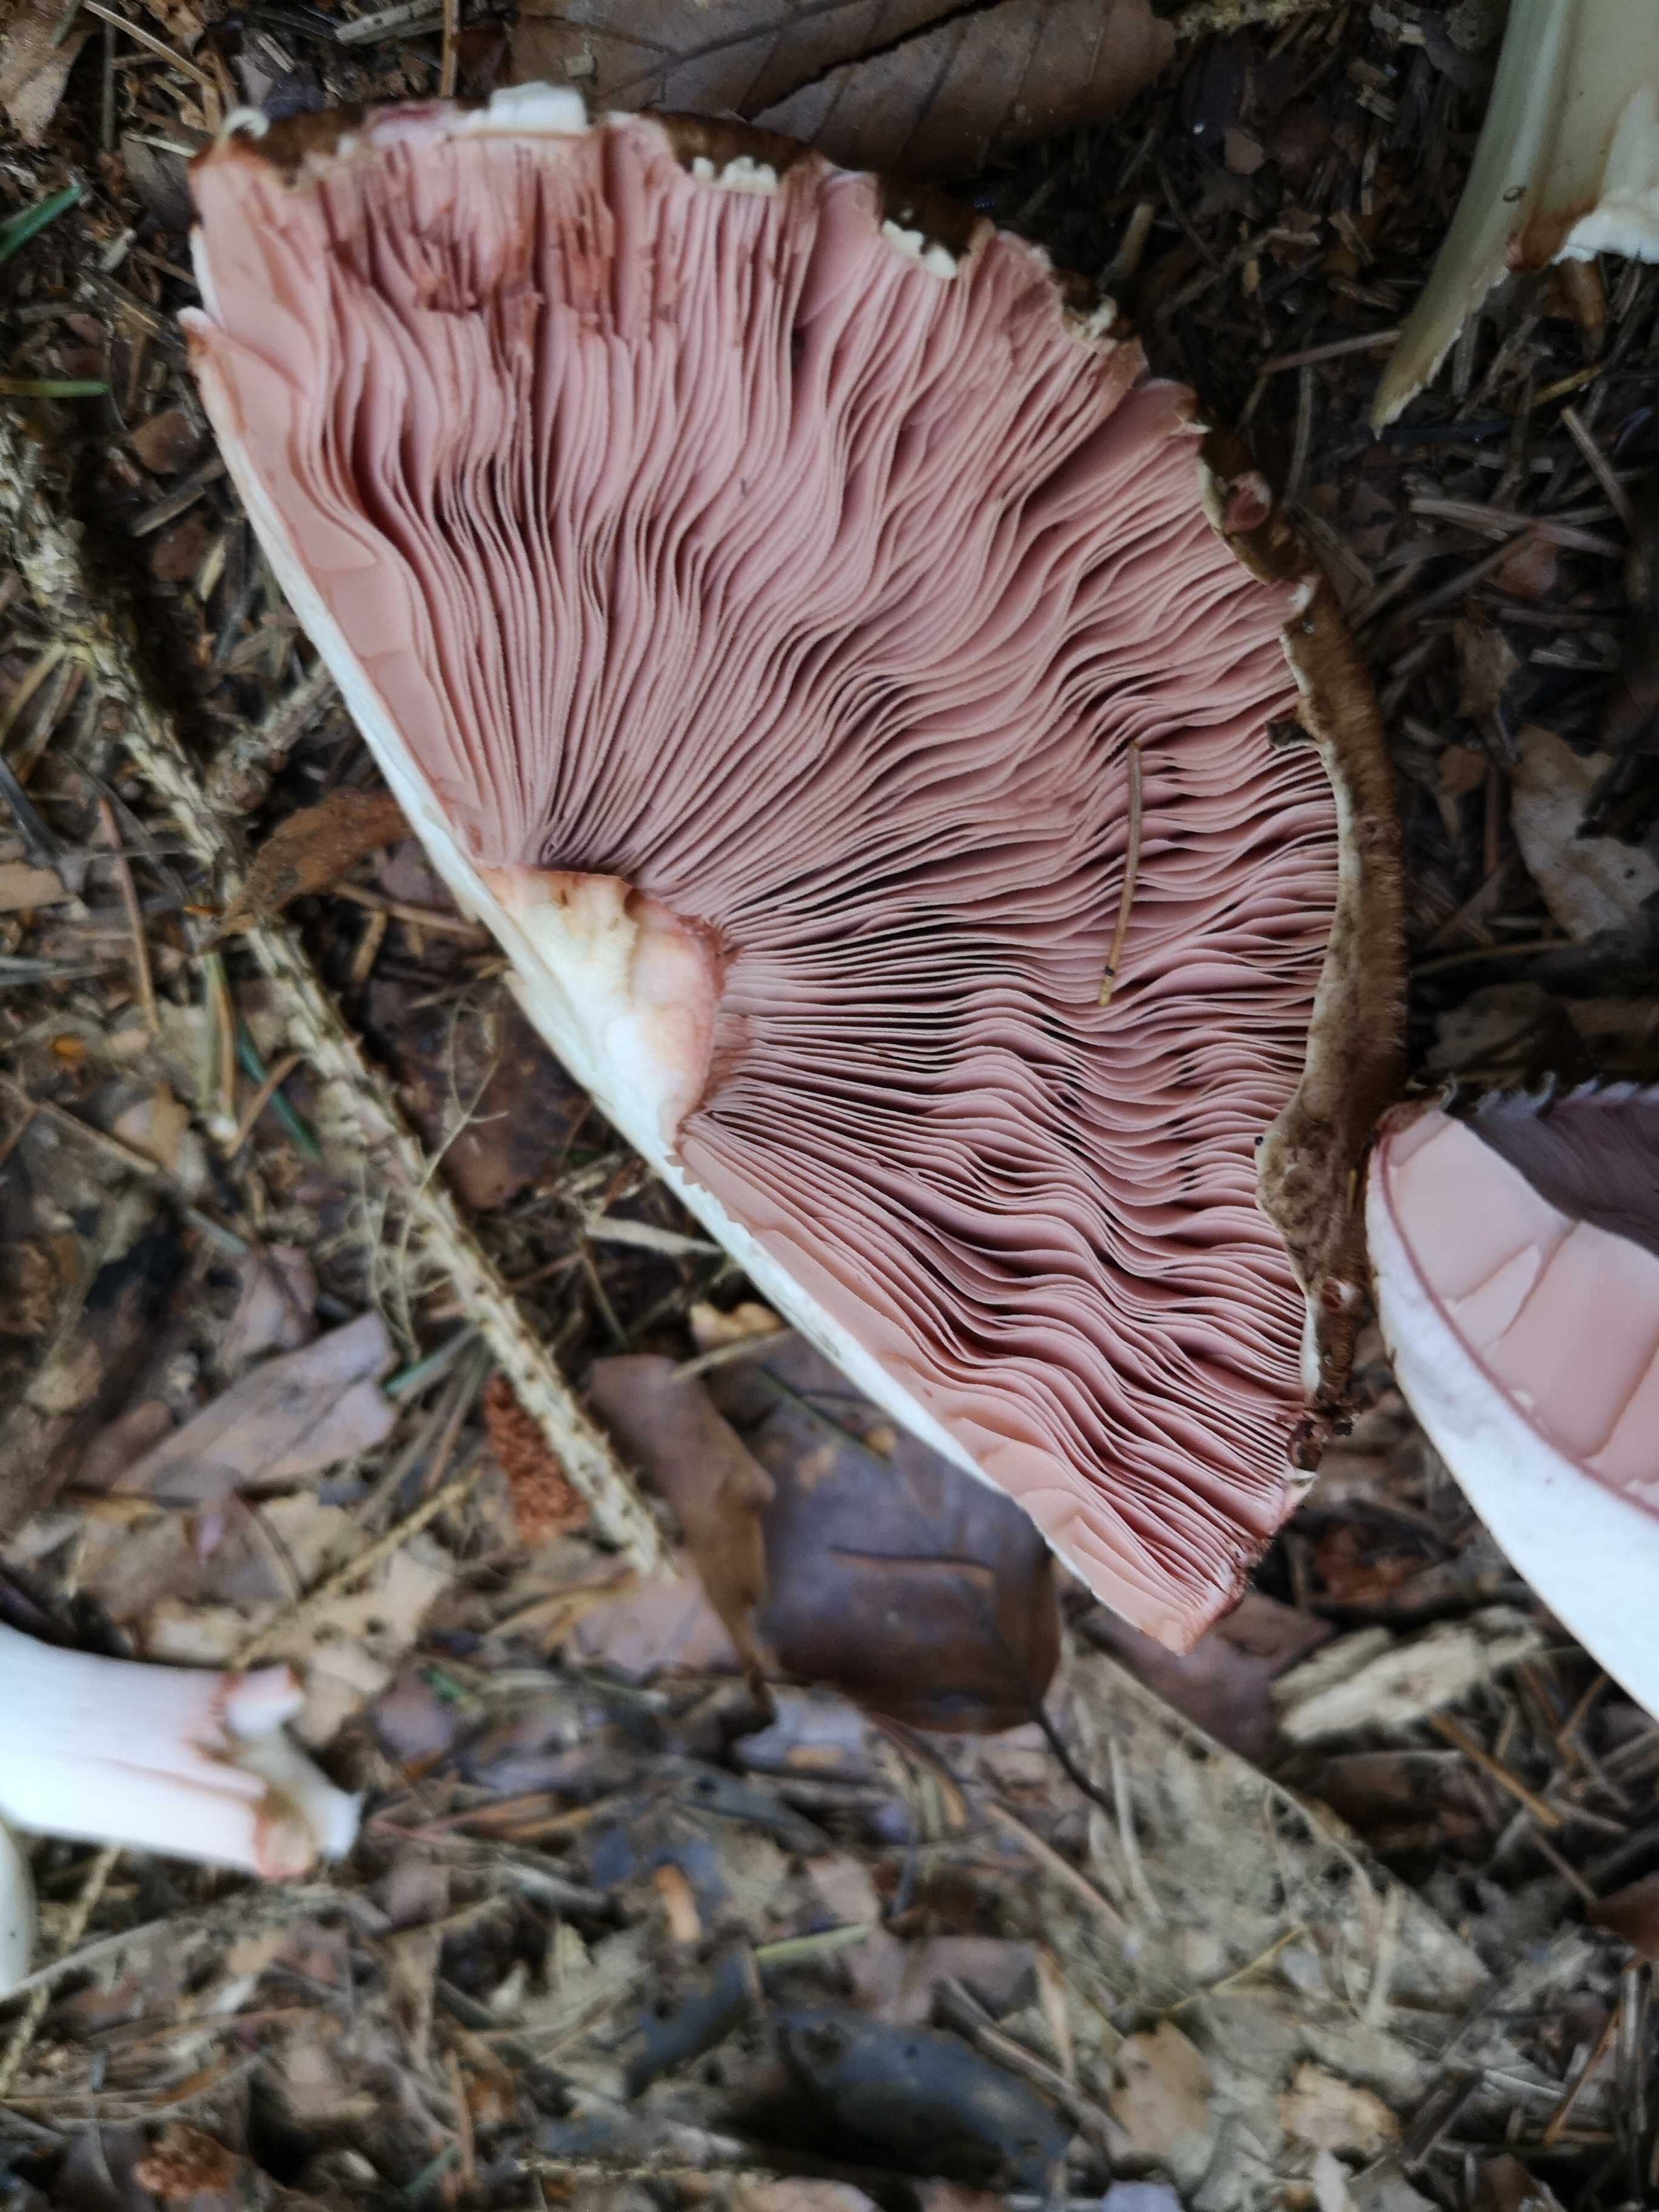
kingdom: Fungi
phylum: Basidiomycota
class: Agaricomycetes
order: Agaricales
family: Agaricaceae
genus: Agaricus
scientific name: Agaricus
